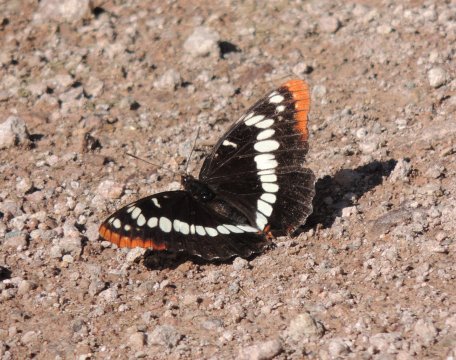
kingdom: Animalia
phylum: Arthropoda
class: Insecta
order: Lepidoptera
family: Nymphalidae
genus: Limenitis
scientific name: Limenitis lorquini
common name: Lorquin's Admiral
